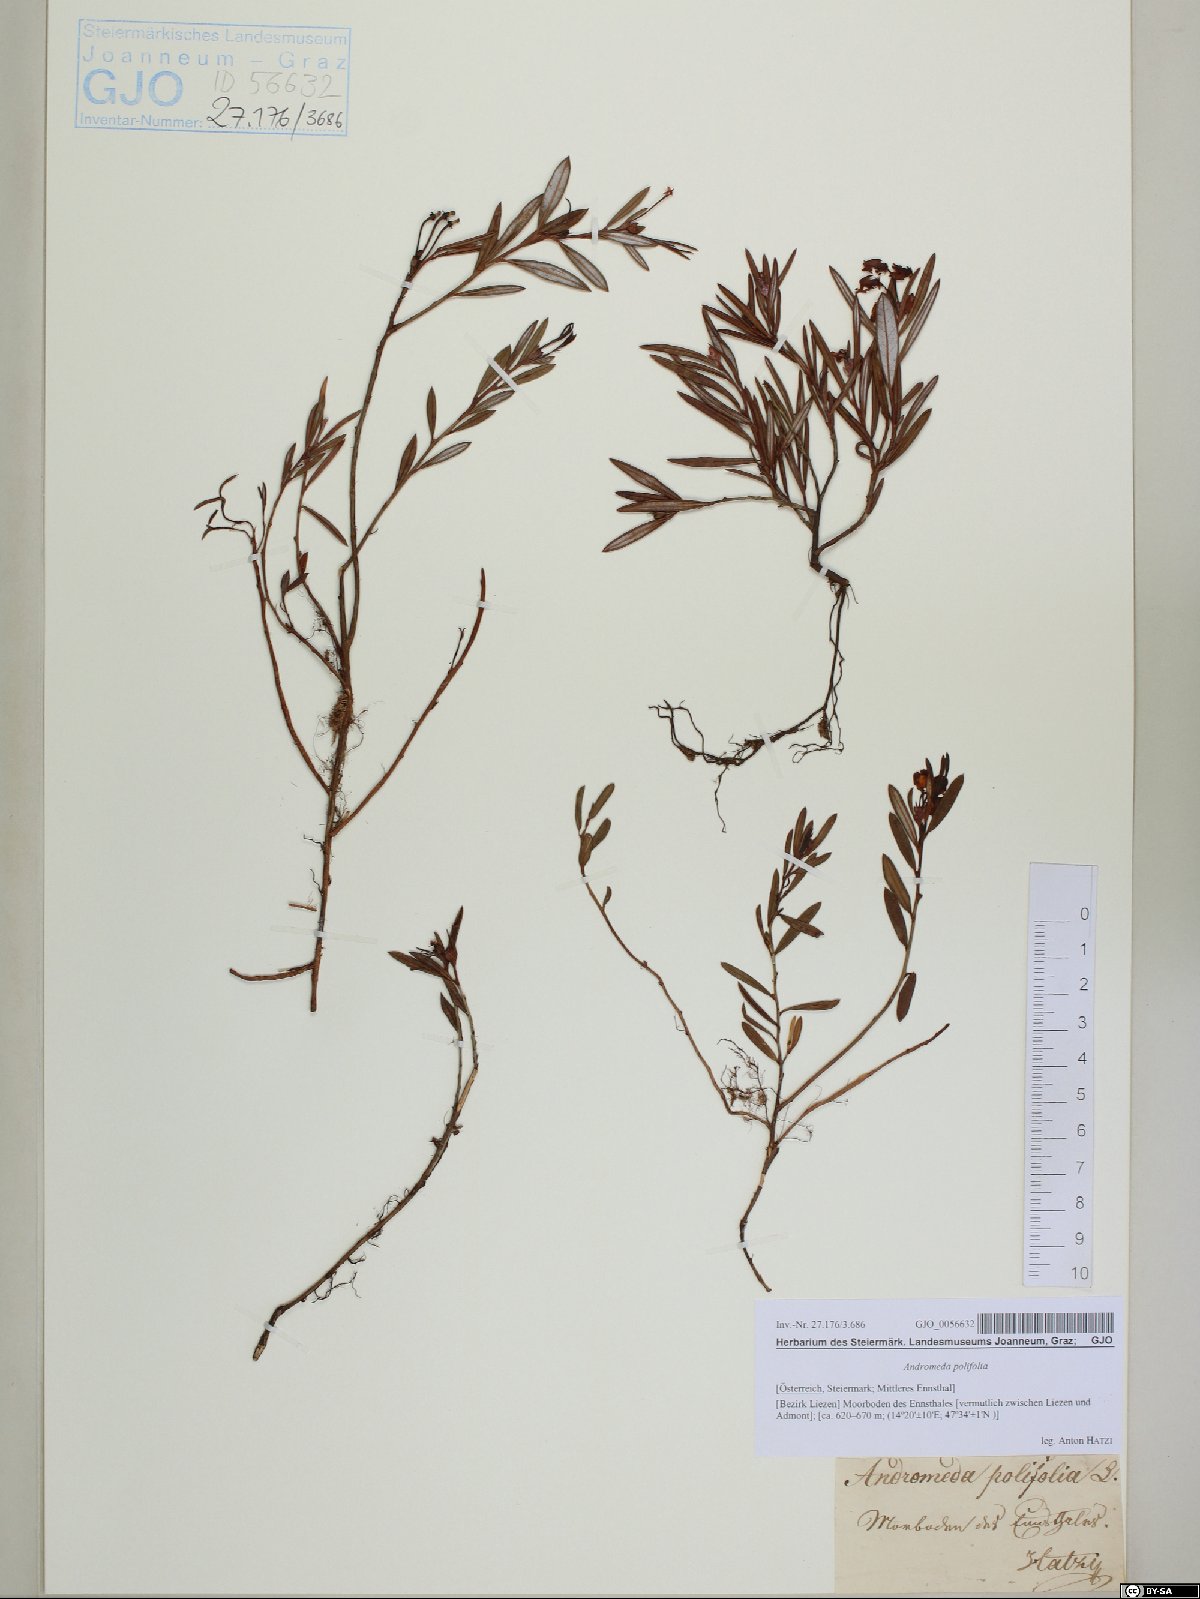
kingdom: Plantae
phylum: Tracheophyta
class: Magnoliopsida
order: Ericales
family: Ericaceae
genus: Andromeda
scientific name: Andromeda polifolia
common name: Bog-rosemary
